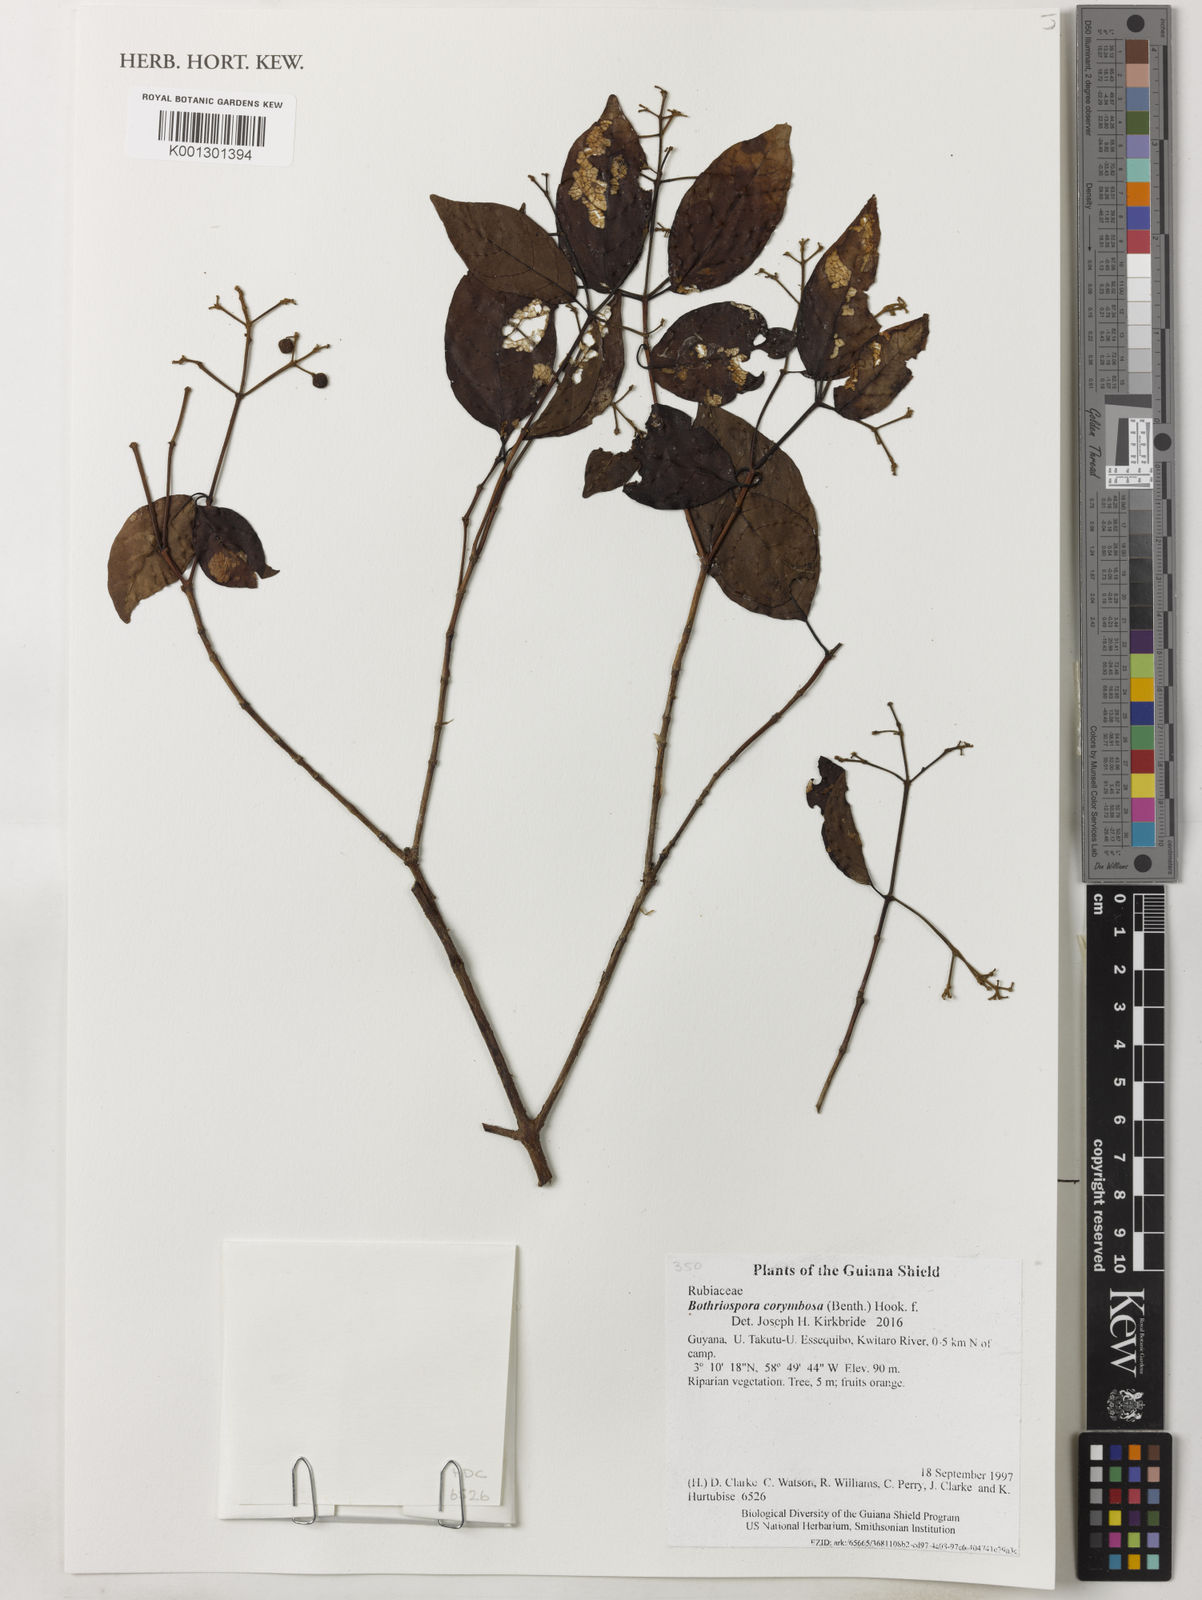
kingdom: Plantae
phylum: Tracheophyta
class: Magnoliopsida
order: Gentianales
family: Rubiaceae
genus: Bothriospora
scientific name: Bothriospora corymbosa
